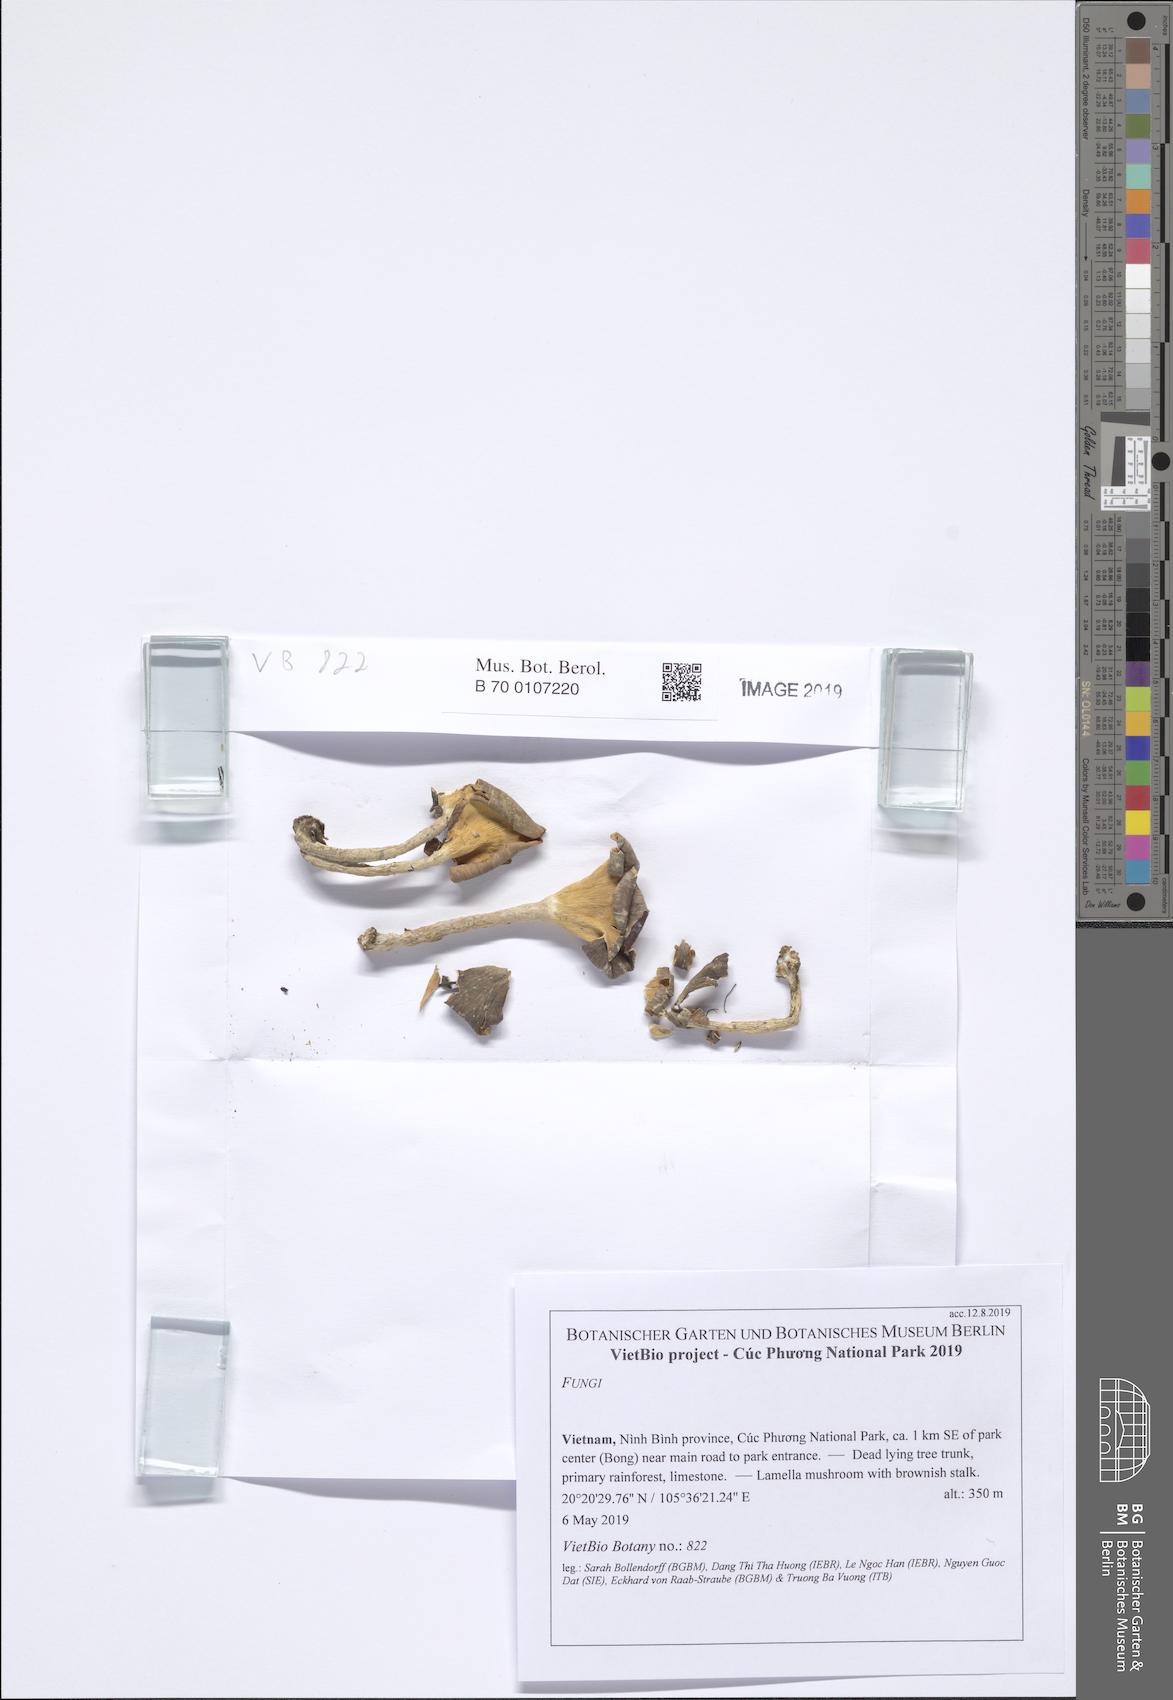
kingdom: Fungi
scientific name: Fungi
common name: Fungi
